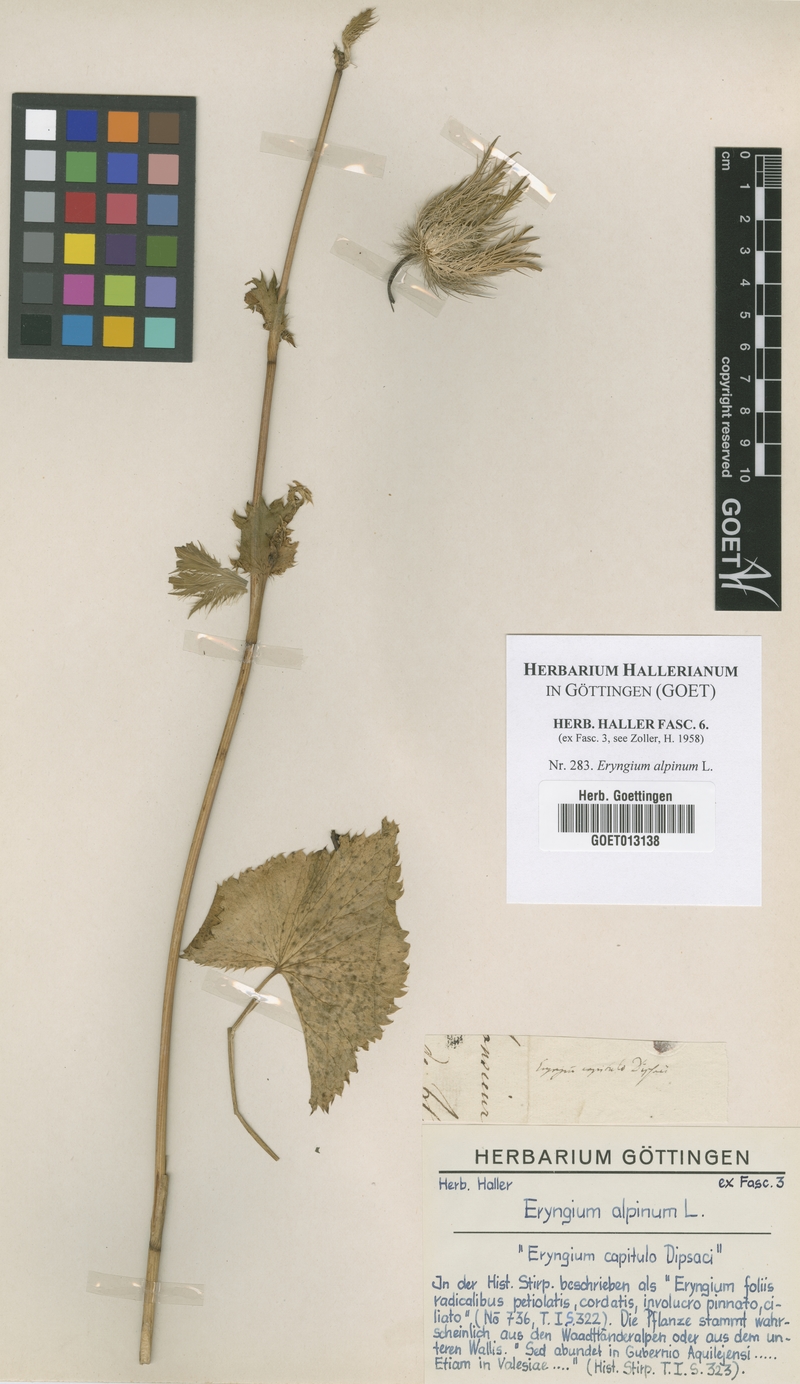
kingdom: Plantae
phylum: Tracheophyta
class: Magnoliopsida
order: Apiales
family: Apiaceae
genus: Eryngium
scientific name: Eryngium alpinum
